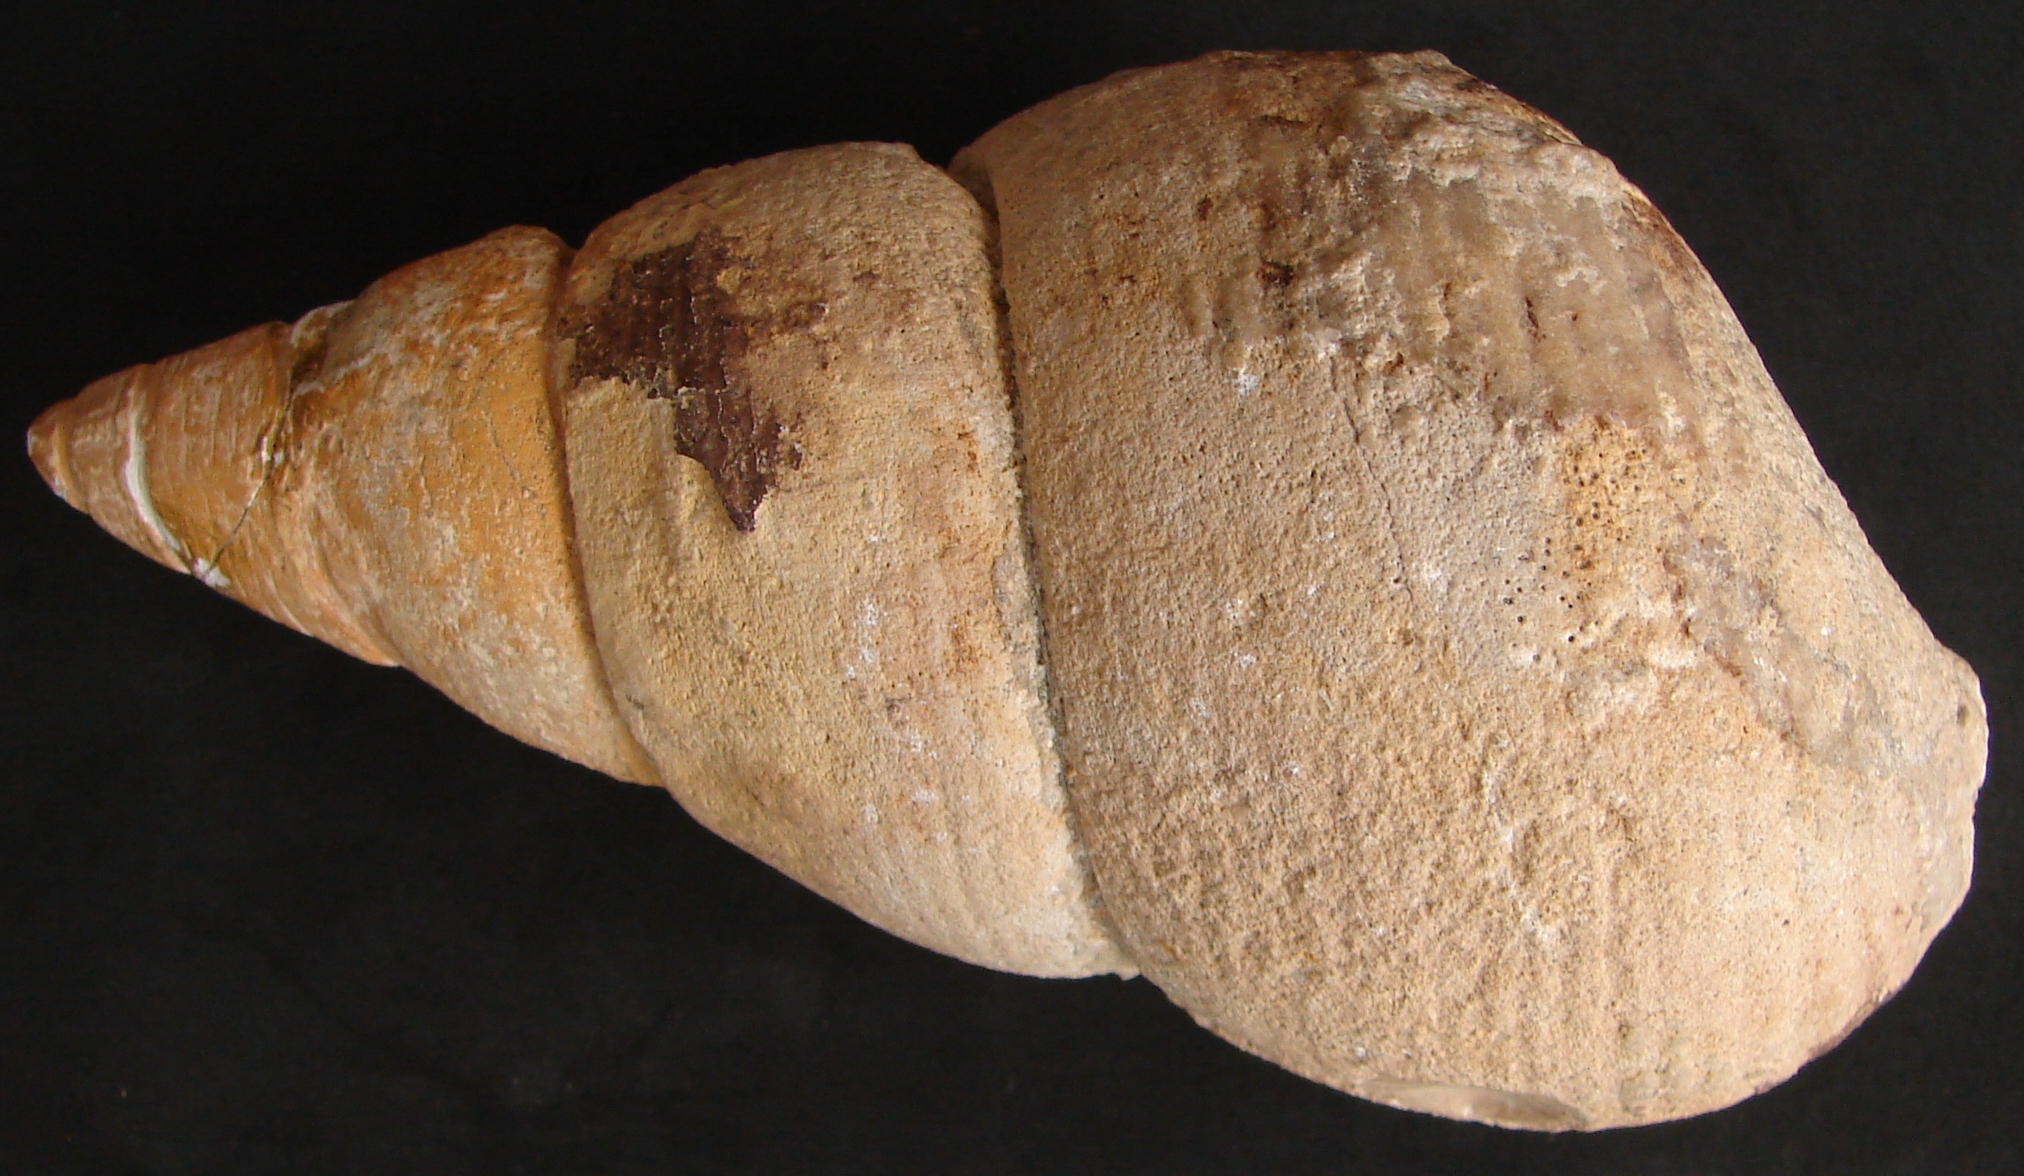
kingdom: Animalia
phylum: Mollusca
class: Gastropoda
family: Pseudomelaniidae
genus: Bourgetia
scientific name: Bourgetia
